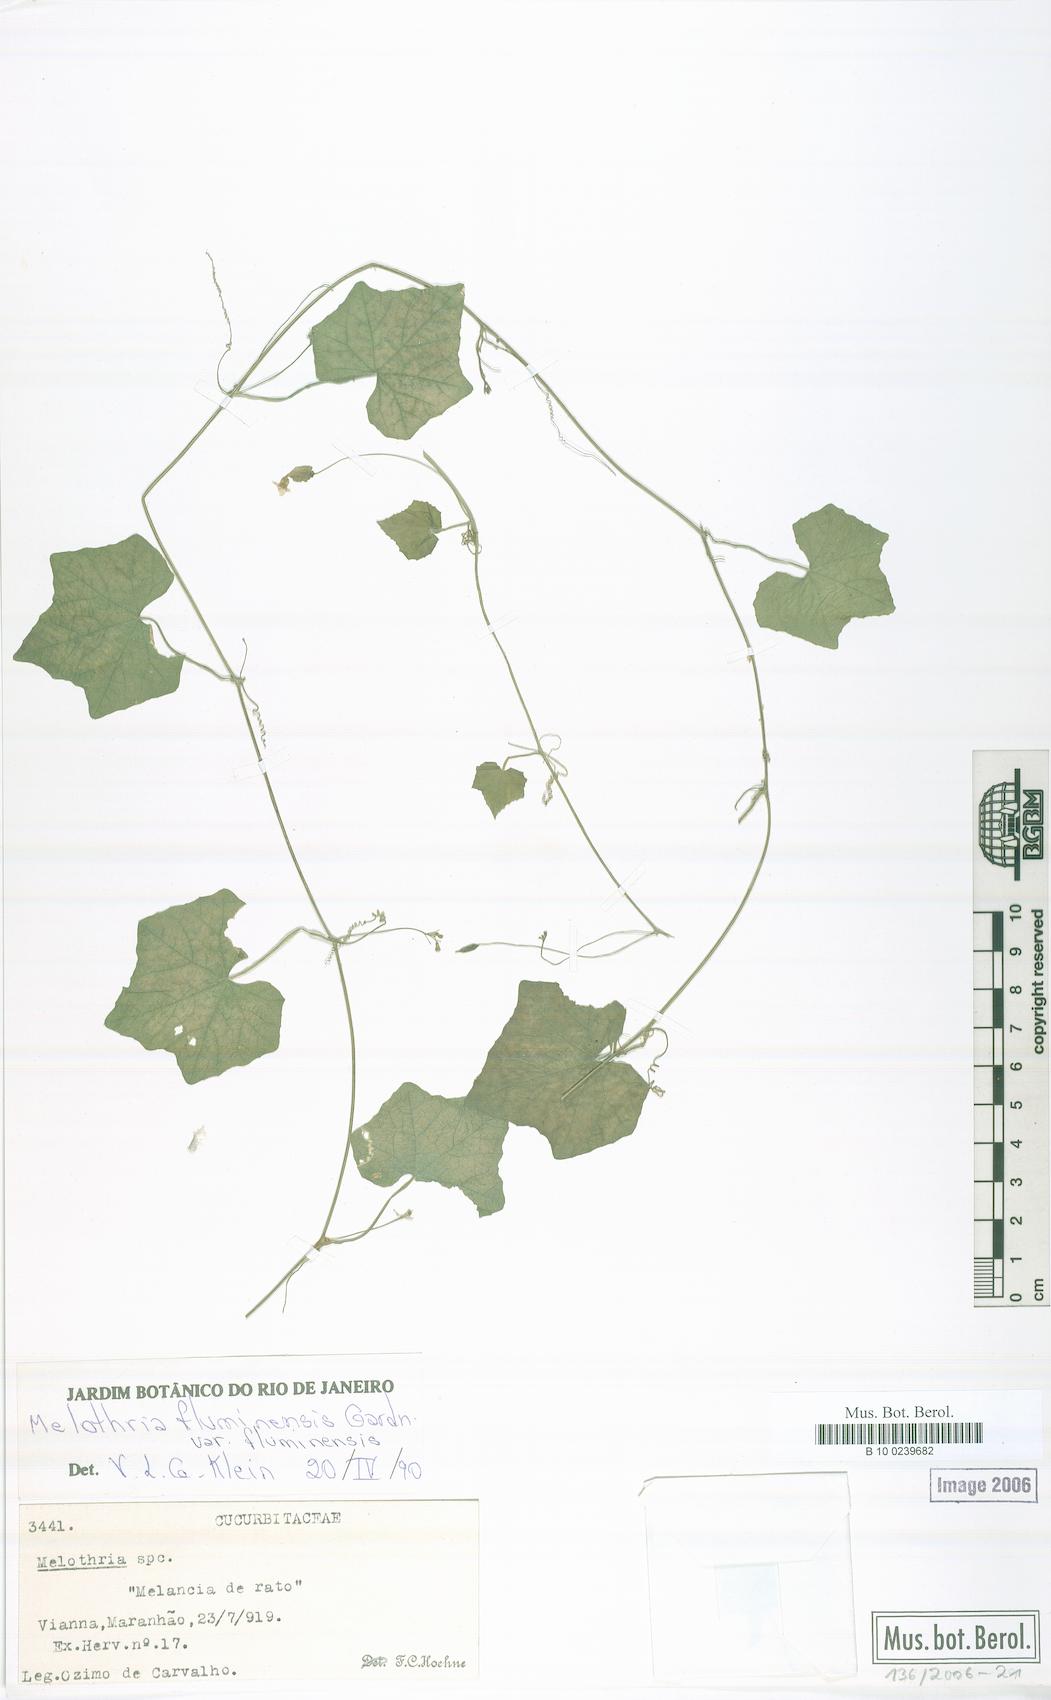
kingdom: Plantae
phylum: Tracheophyta
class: Magnoliopsida
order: Cucurbitales
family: Cucurbitaceae
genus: Melothria
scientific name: Melothria fluminensis
